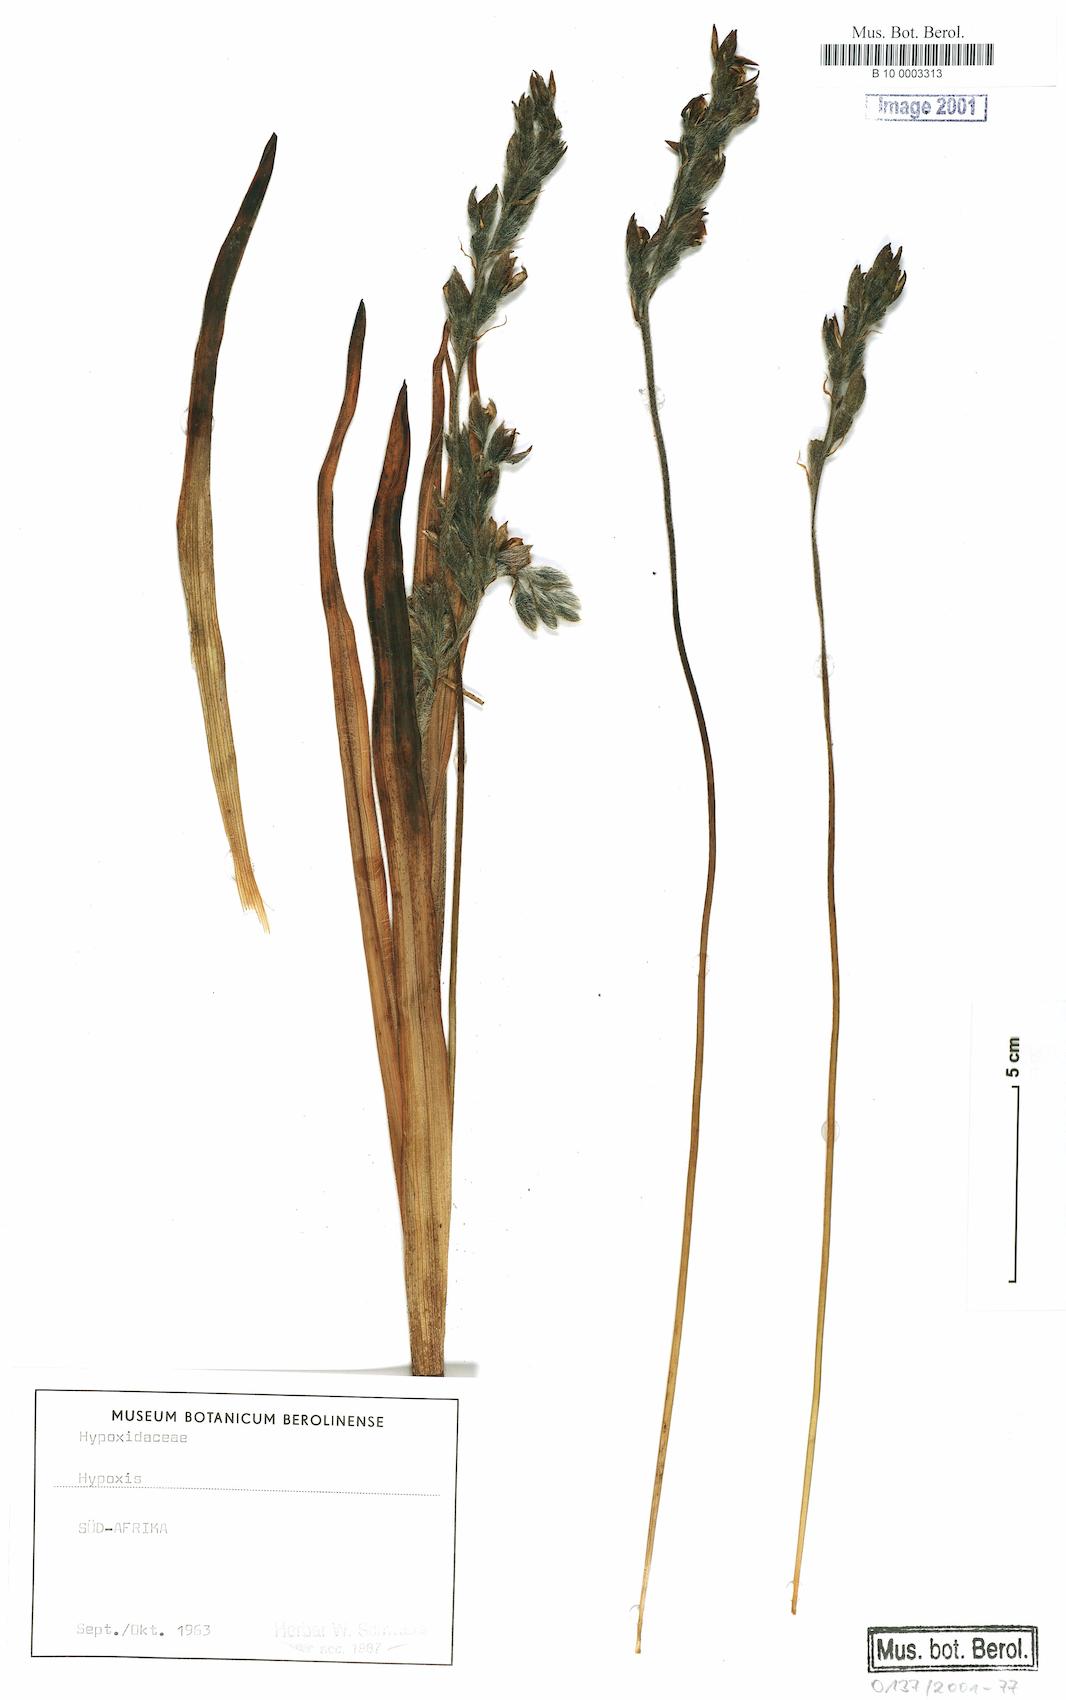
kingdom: Plantae
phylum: Tracheophyta
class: Liliopsida
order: Asparagales
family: Hypoxidaceae
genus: Hypoxis
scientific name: Hypoxis
